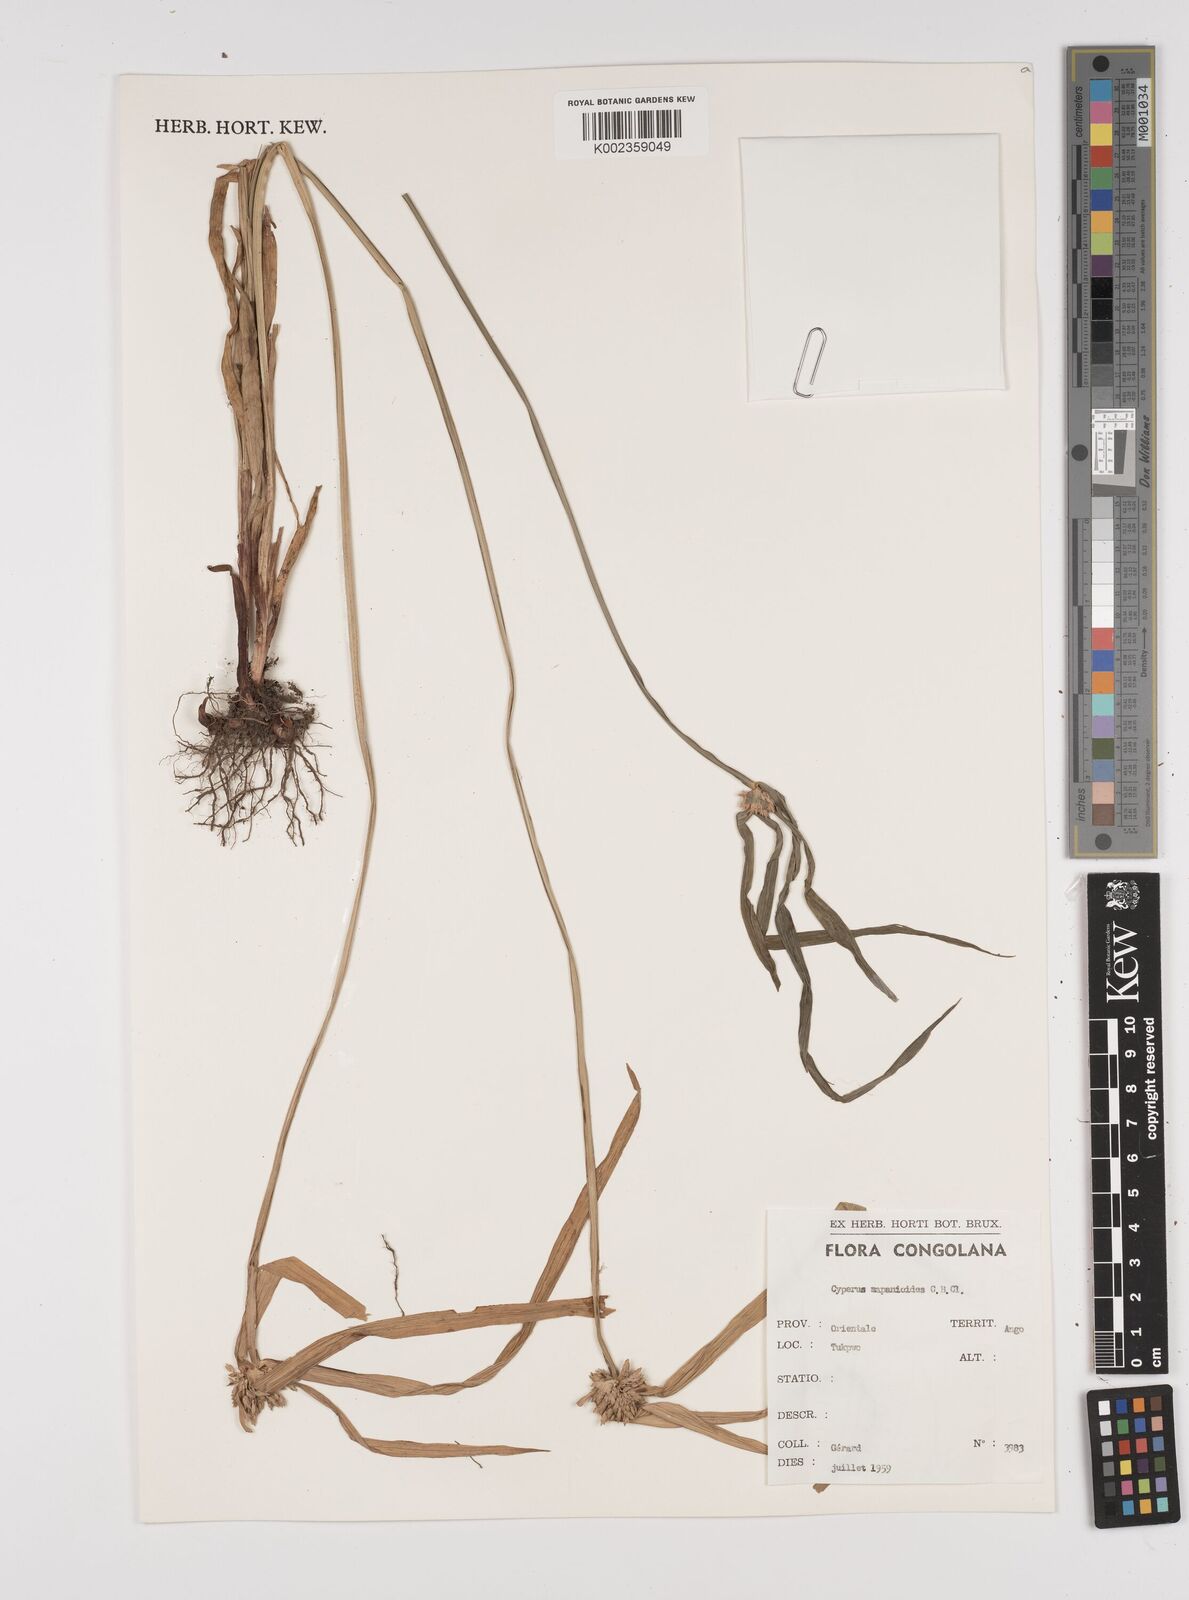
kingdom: Plantae
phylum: Tracheophyta
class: Liliopsida
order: Poales
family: Cyperaceae
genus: Cyperus
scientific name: Cyperus mapanioides
